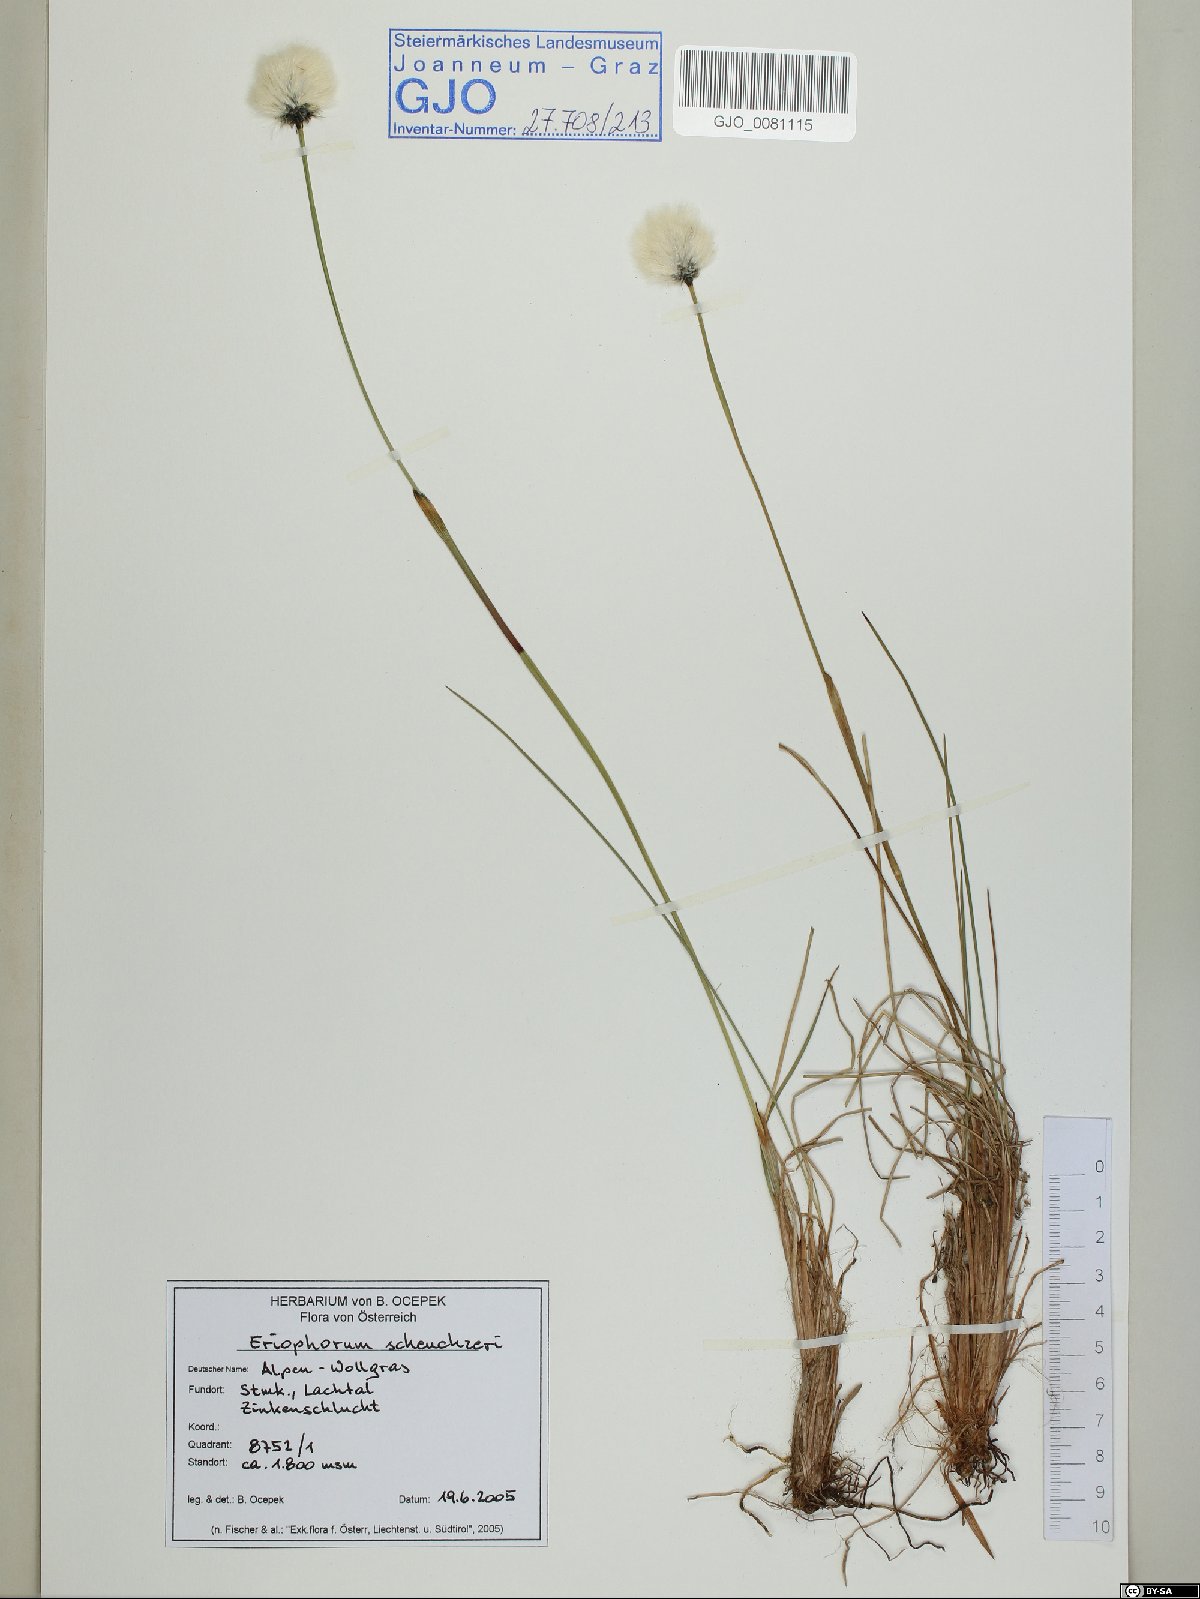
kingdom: Plantae
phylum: Tracheophyta
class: Liliopsida
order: Poales
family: Cyperaceae
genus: Eriophorum
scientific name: Eriophorum scheuchzeri
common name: Scheuchzer's cottongrass
